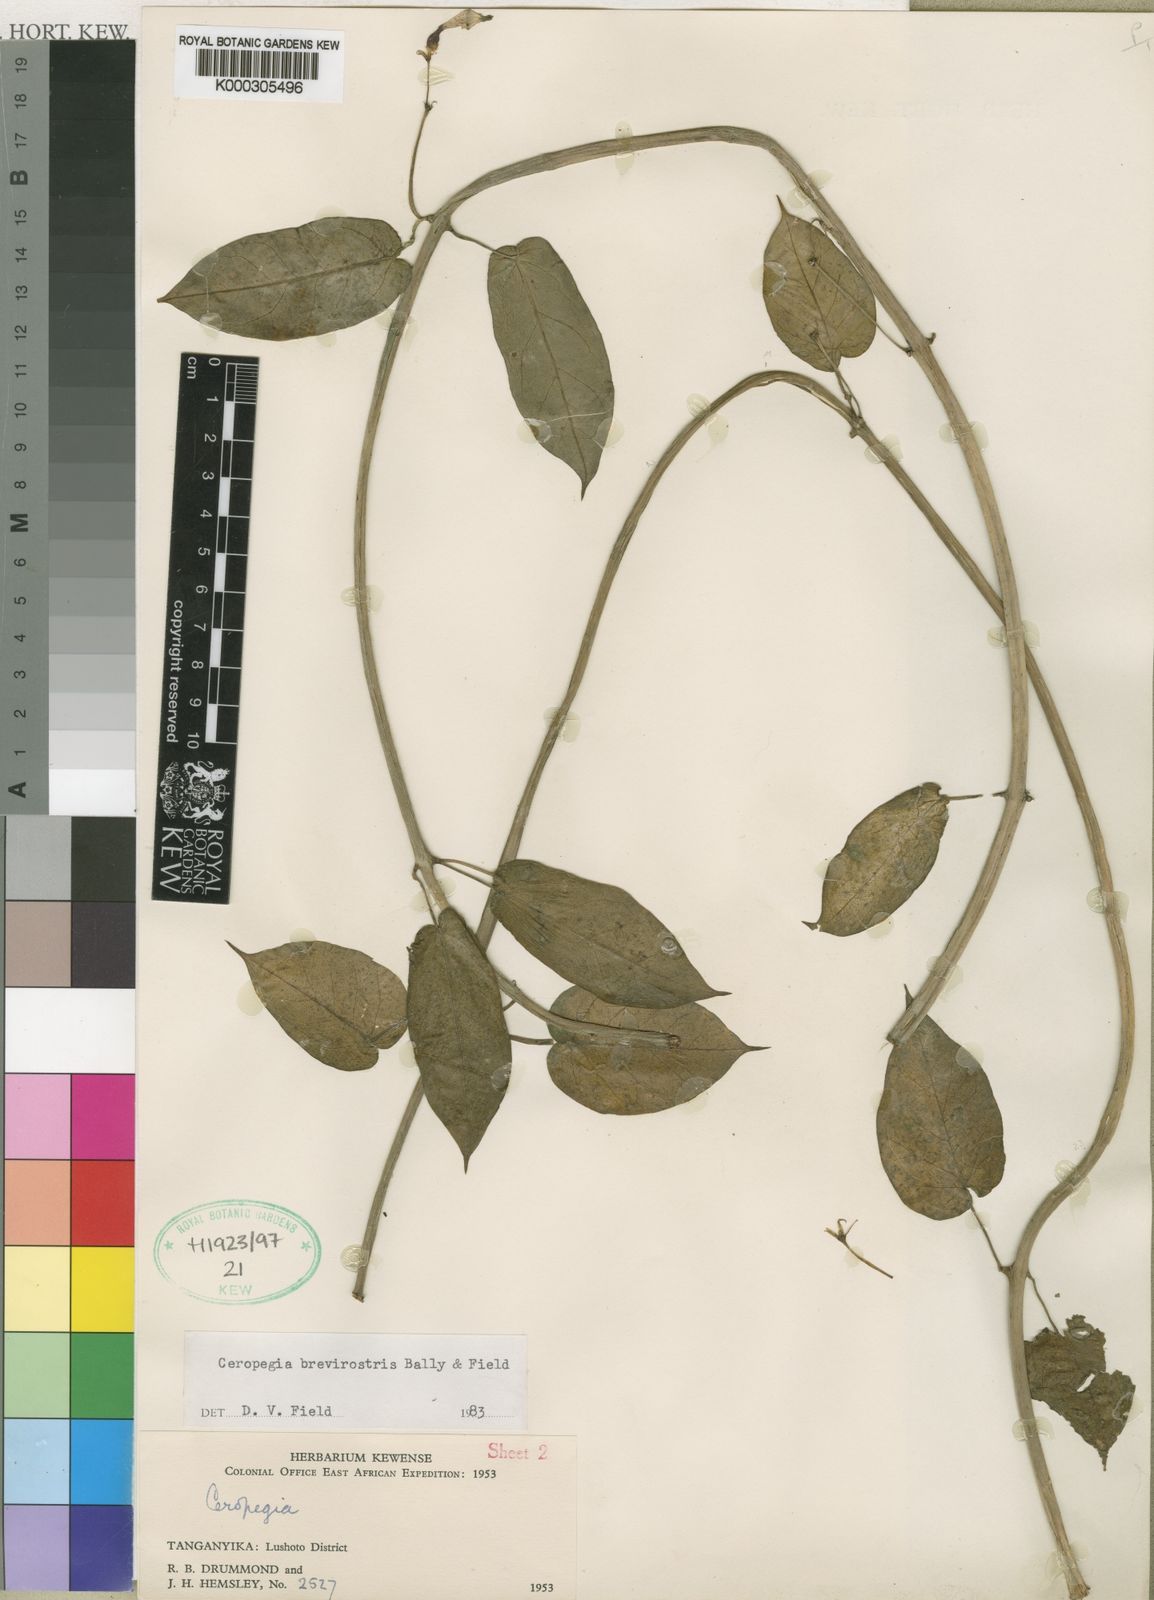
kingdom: Plantae
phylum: Tracheophyta
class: Magnoliopsida
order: Gentianales
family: Apocynaceae
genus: Ceropegia
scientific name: Ceropegia distincta
